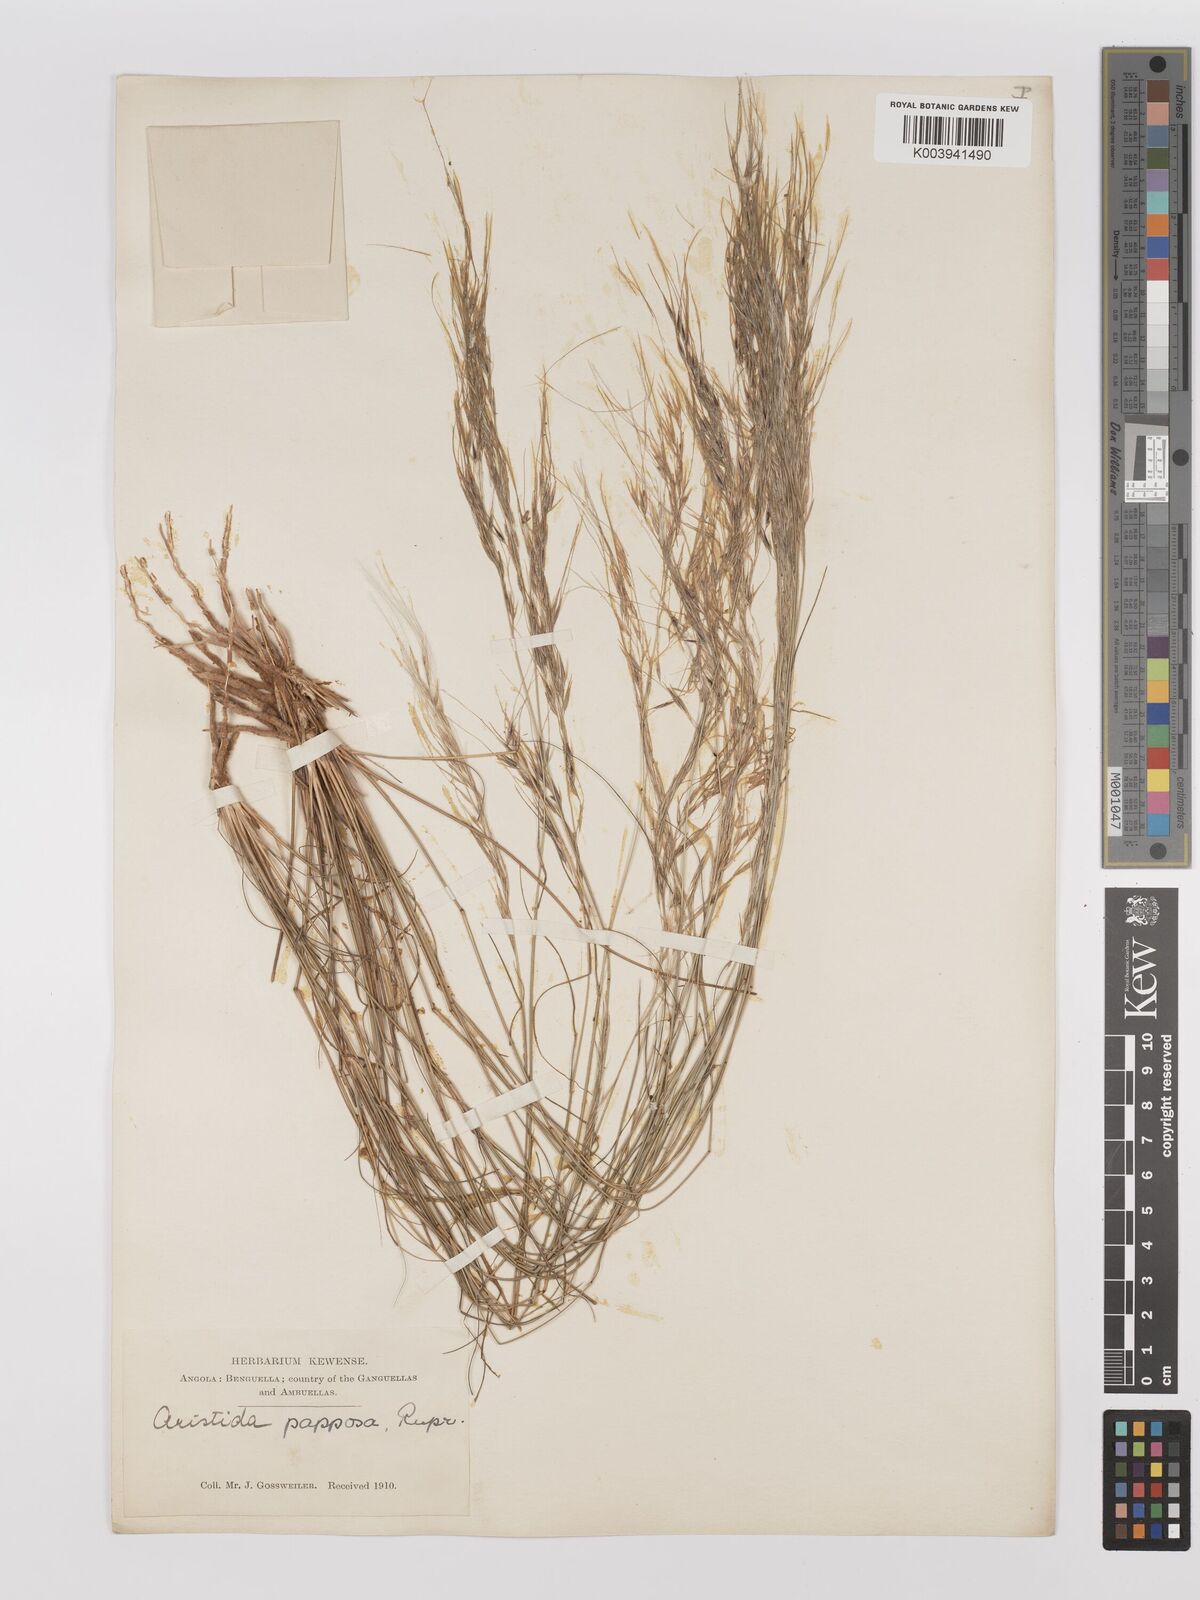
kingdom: Plantae
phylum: Tracheophyta
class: Liliopsida
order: Poales
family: Poaceae
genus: Stipagrostis
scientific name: Stipagrostis uniplumis
